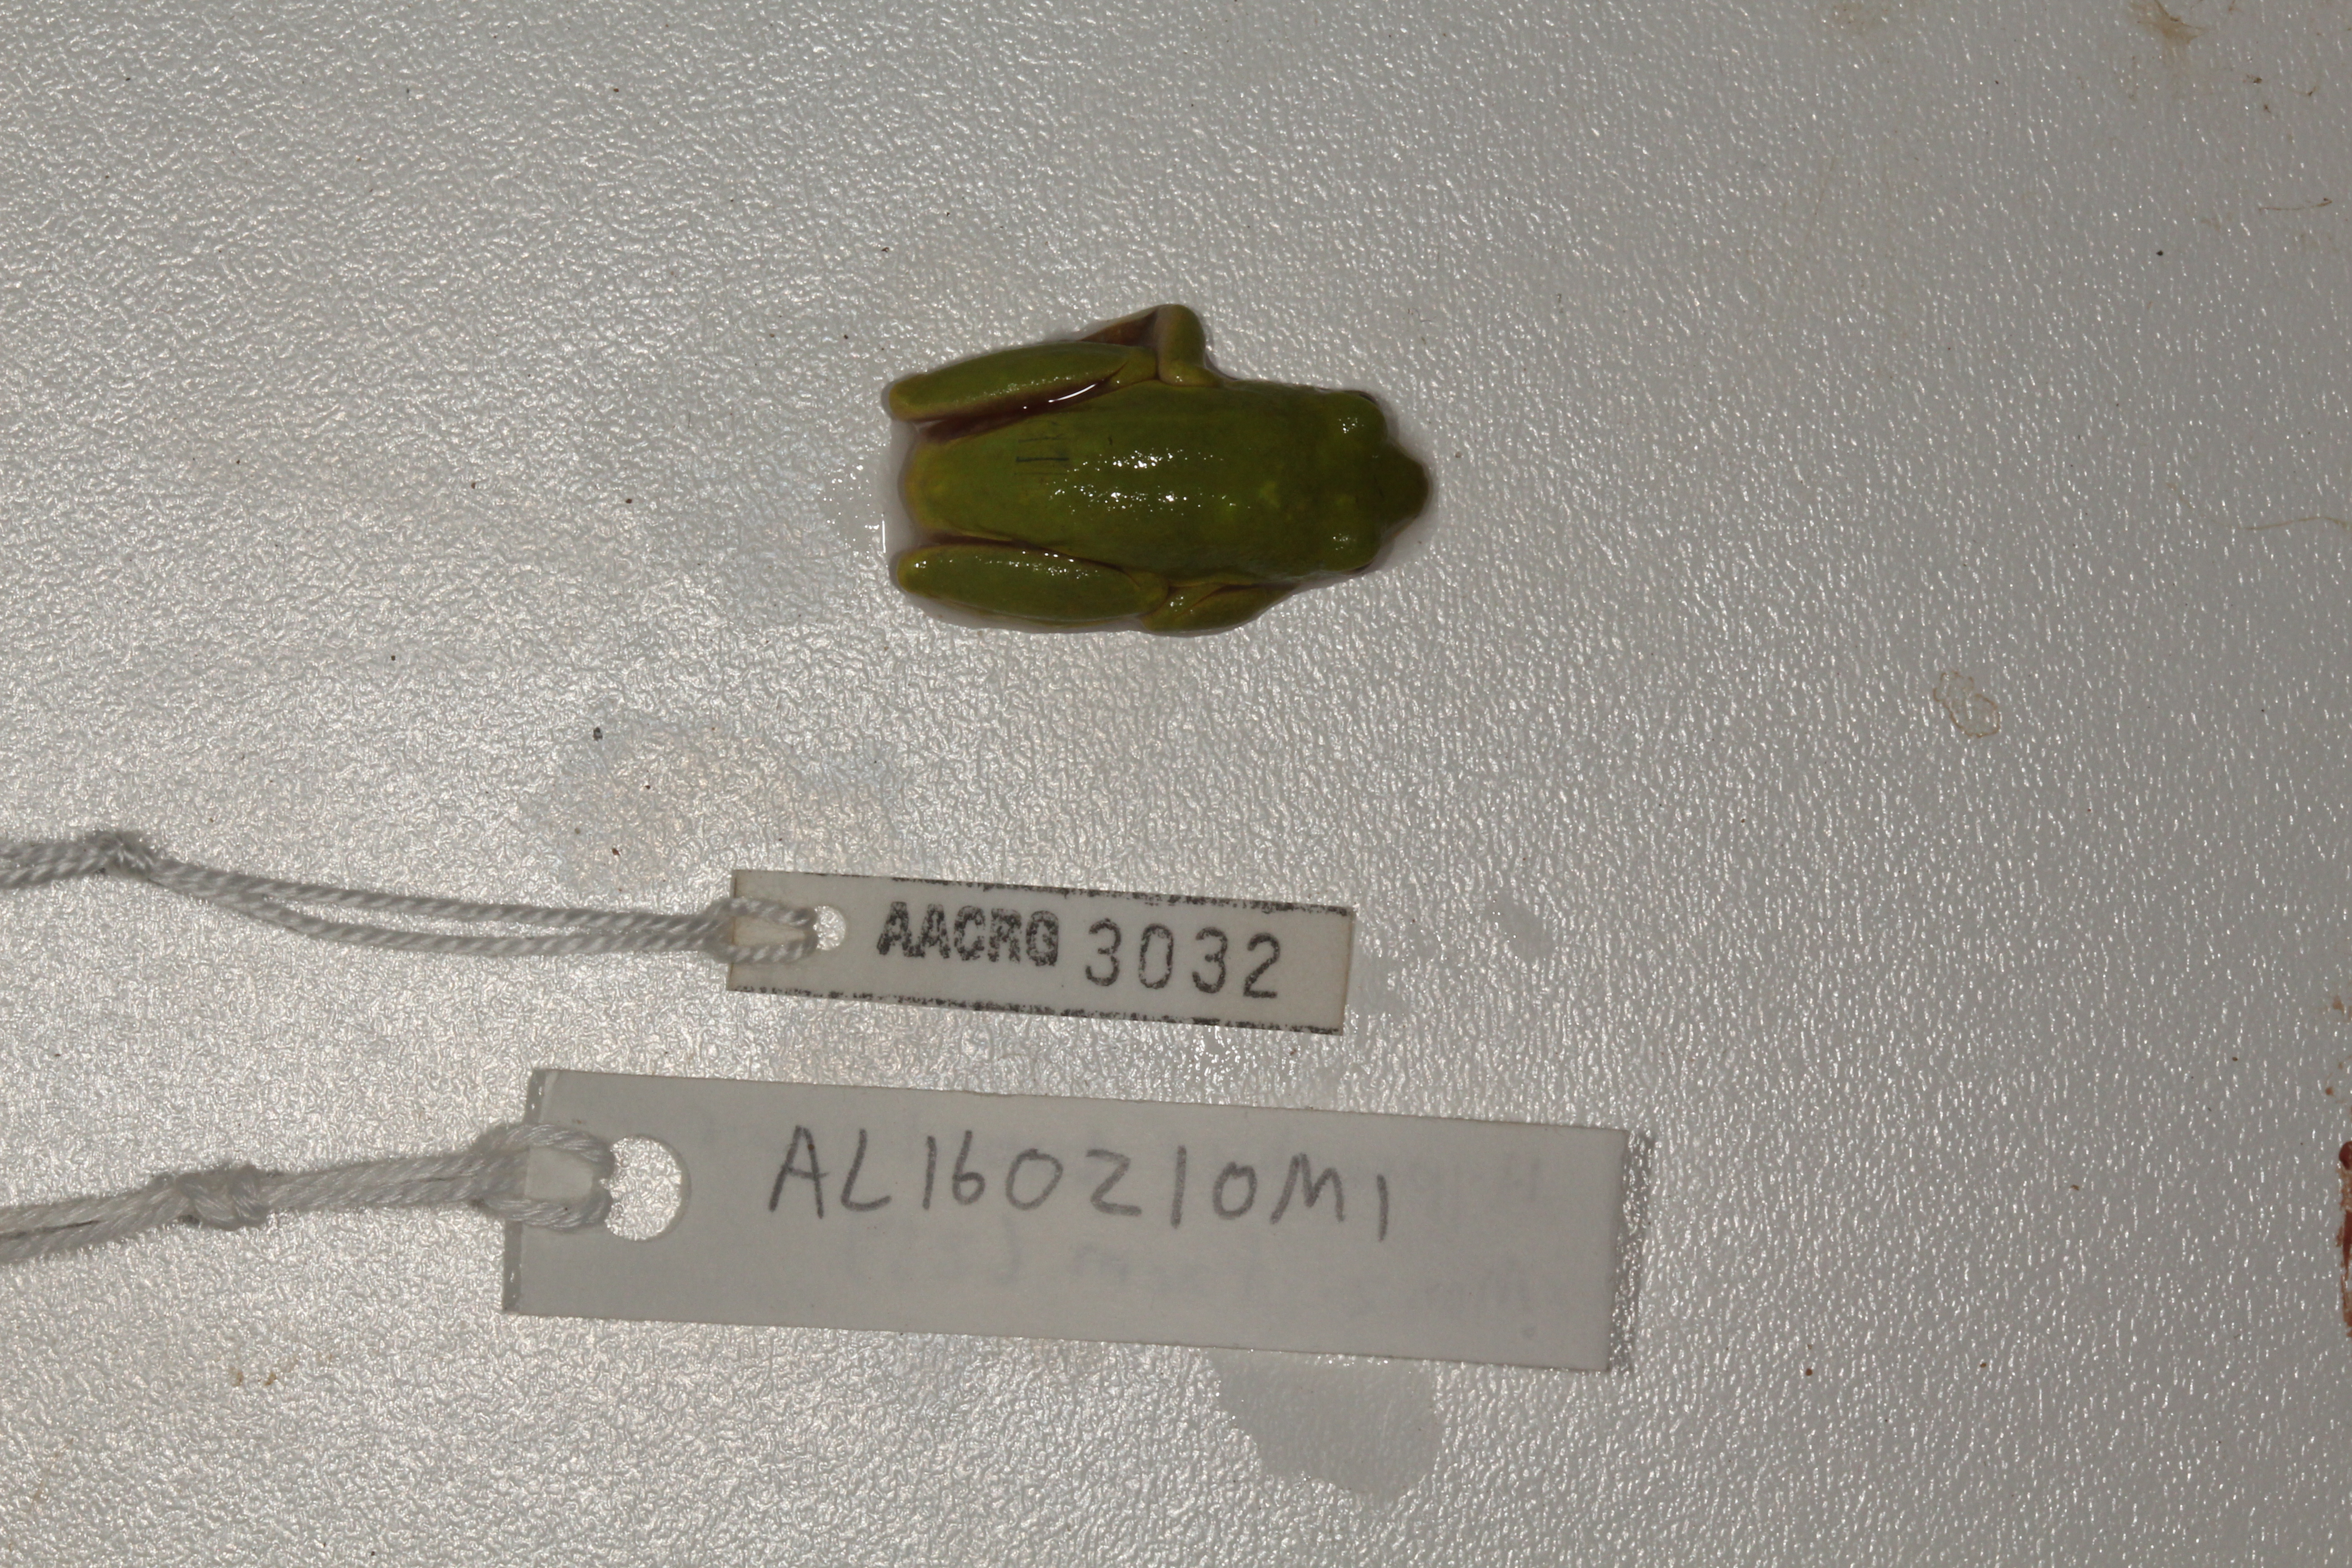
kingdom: Animalia
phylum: Chordata
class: Amphibia
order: Anura
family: Hyperoliidae
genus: Hyperolius
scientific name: Hyperolius tuberilinguis
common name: Tinker reed frog
